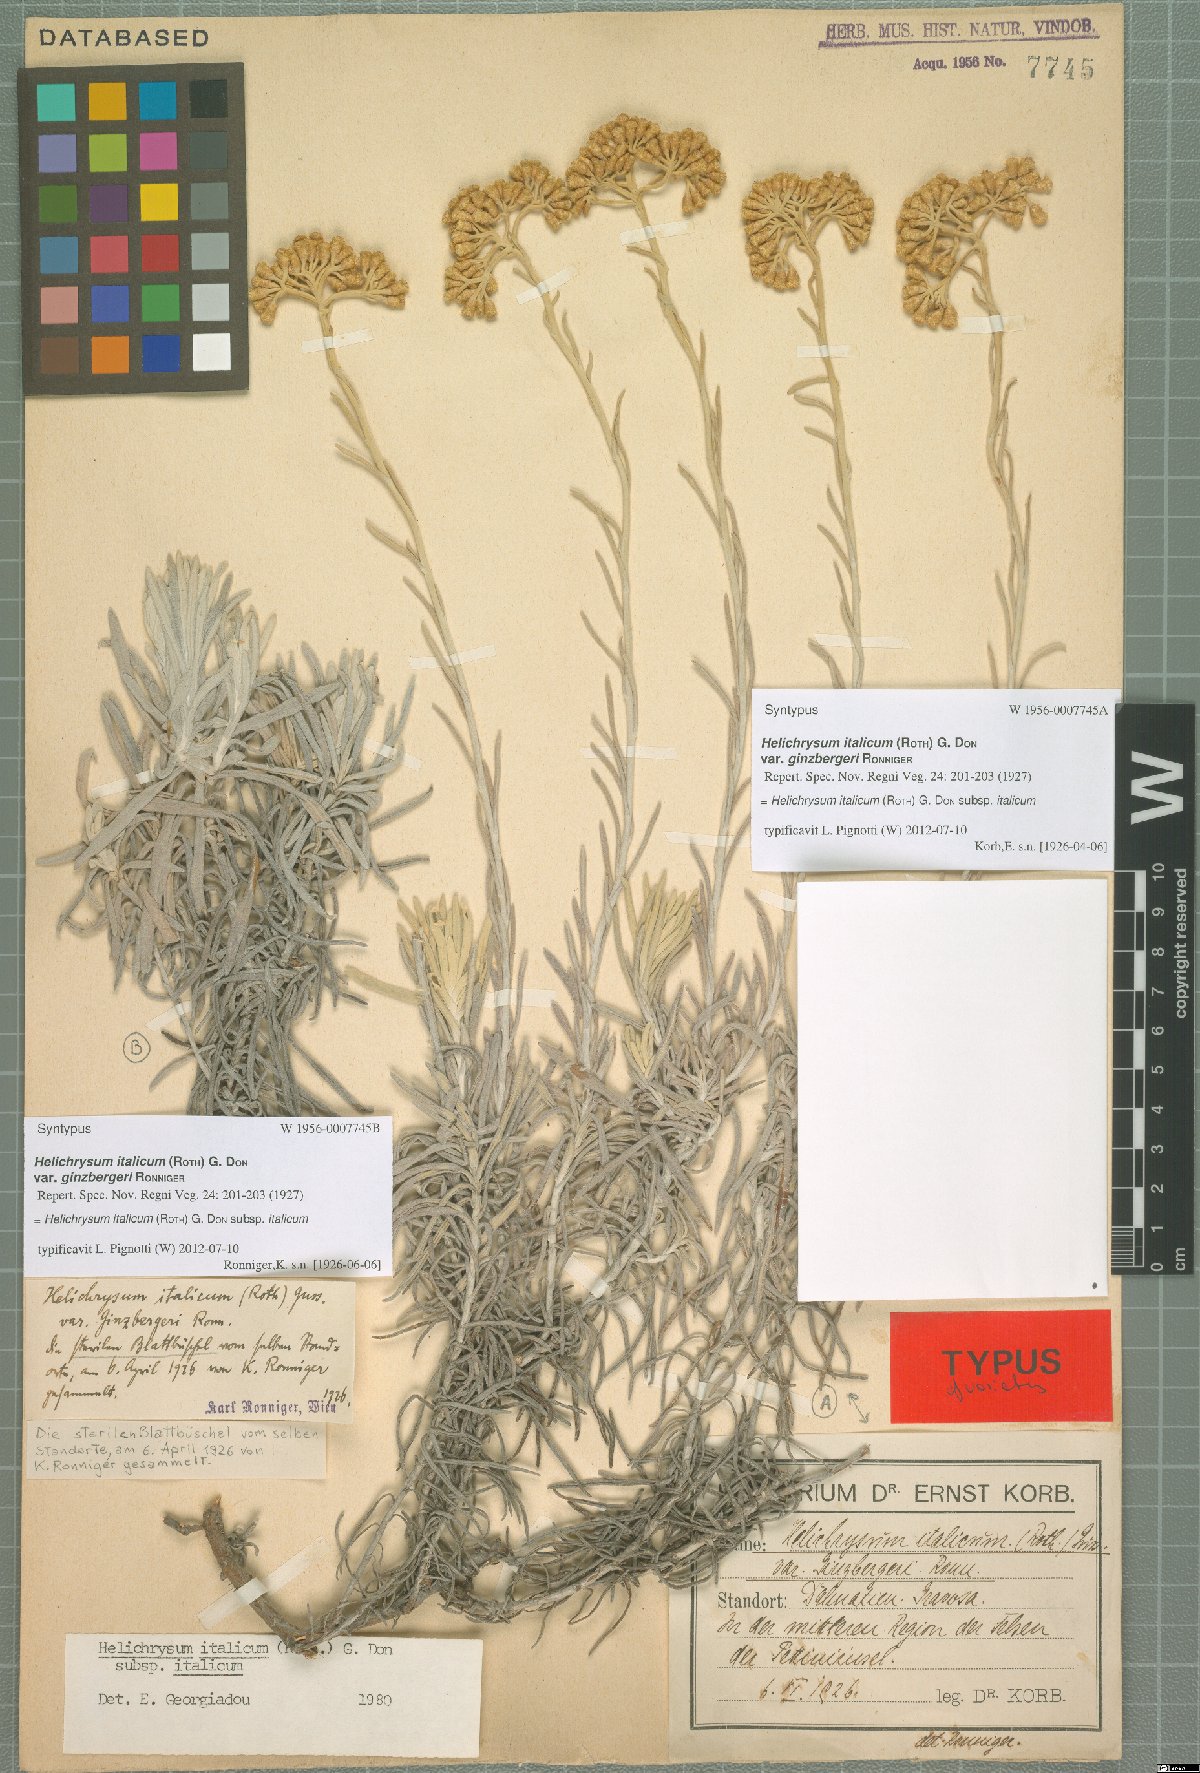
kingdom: Plantae
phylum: Tracheophyta
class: Magnoliopsida
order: Asterales
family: Asteraceae
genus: Helichrysum
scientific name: Helichrysum italicum
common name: Curryplant
